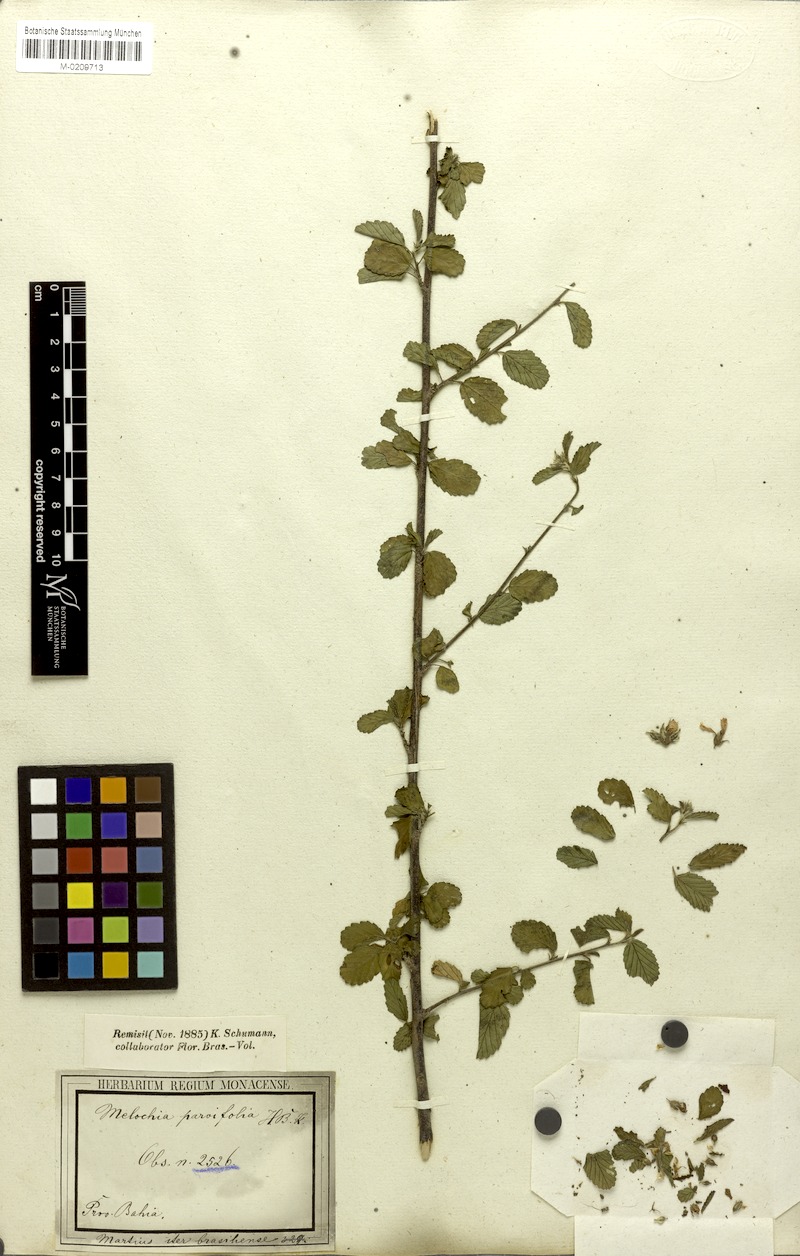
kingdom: Plantae
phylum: Tracheophyta
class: Magnoliopsida
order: Malvales
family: Malvaceae
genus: Melochia
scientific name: Melochia parvifolia
